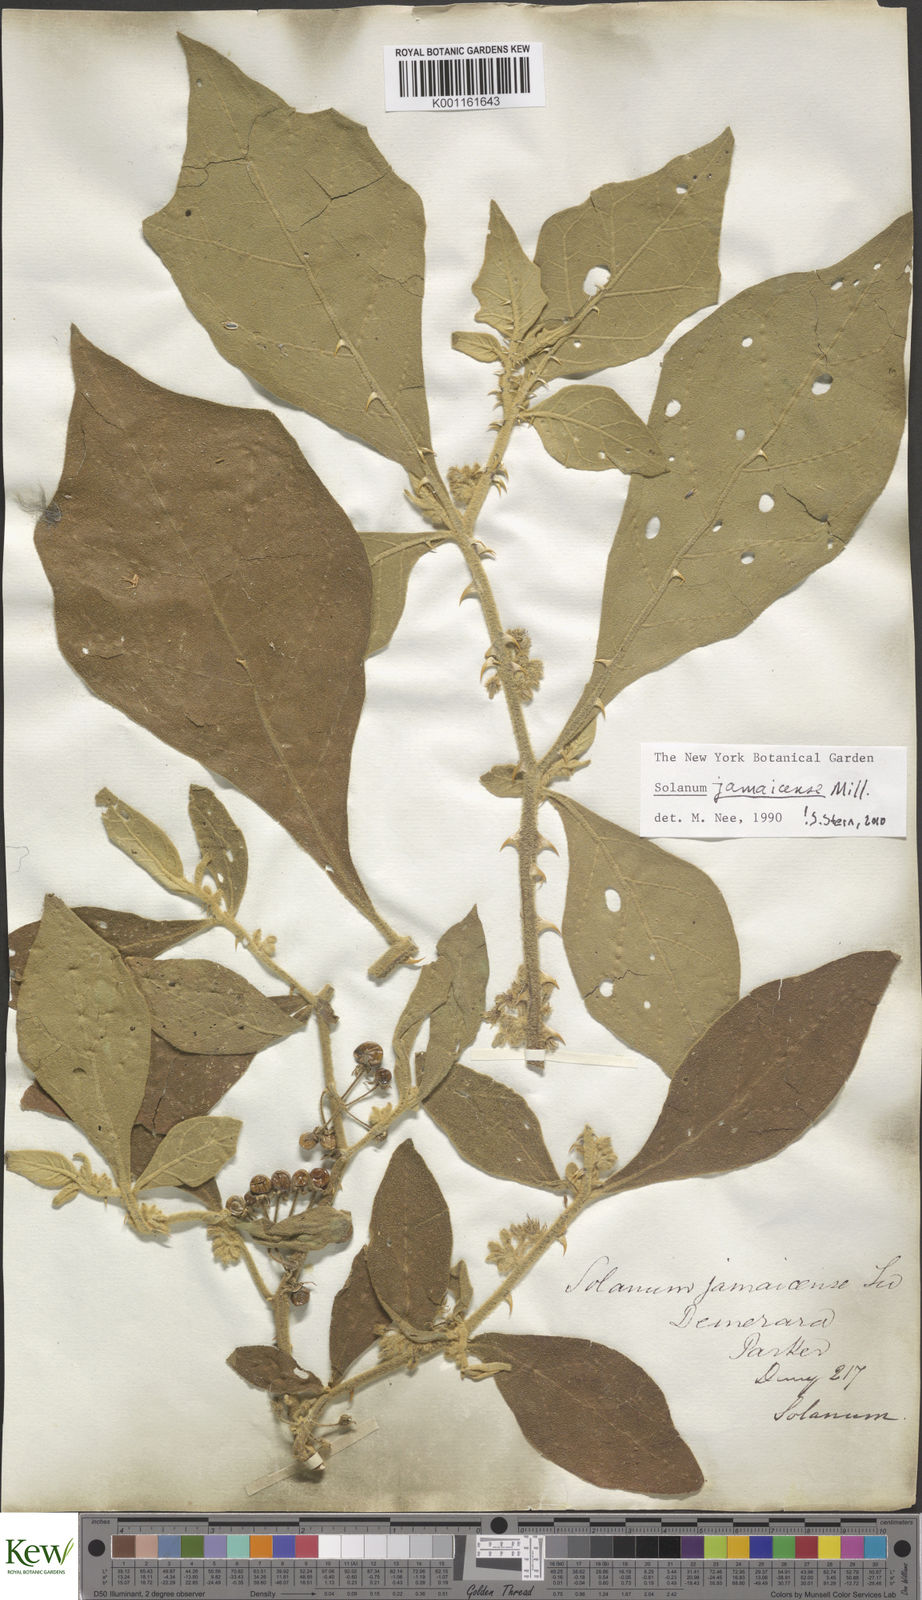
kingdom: Plantae
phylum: Tracheophyta
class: Magnoliopsida
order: Solanales
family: Solanaceae
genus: Solanum
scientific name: Solanum jamaicense
